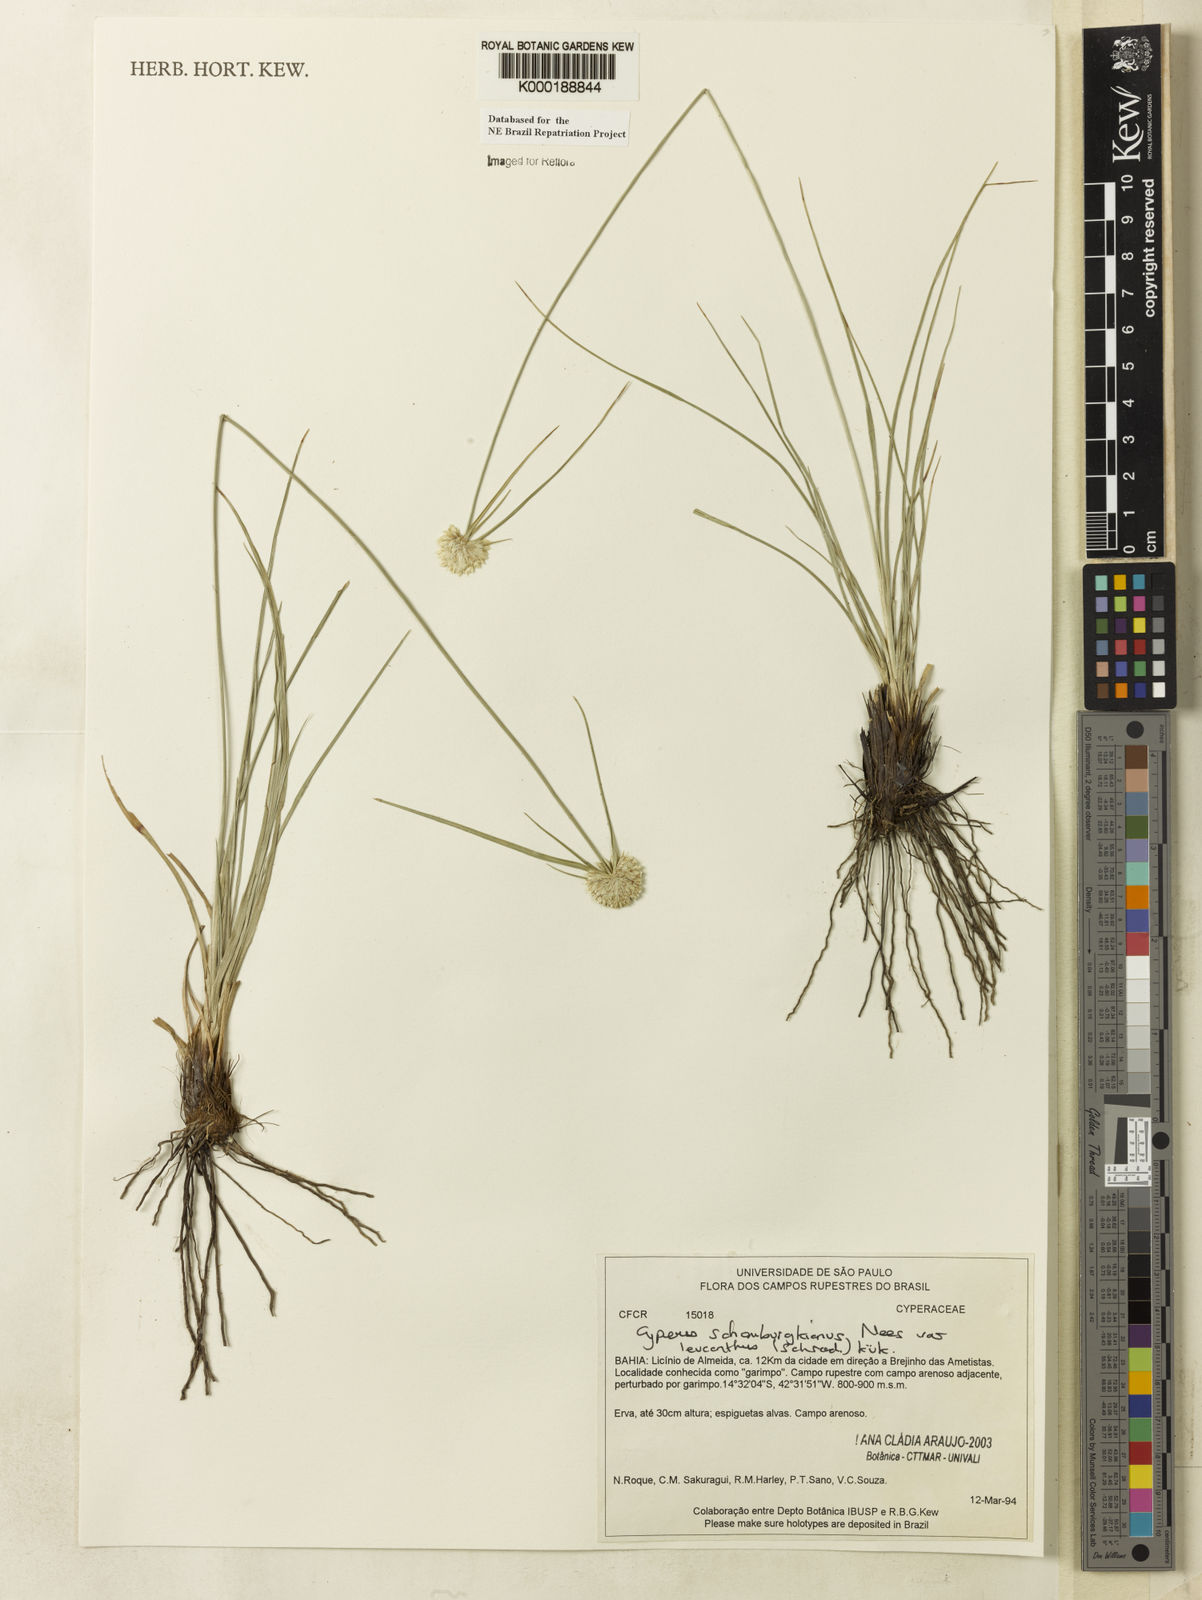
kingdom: Plantae
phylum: Tracheophyta
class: Liliopsida
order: Poales
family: Cyperaceae
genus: Cyperus
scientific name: Cyperus schomburgkianus
